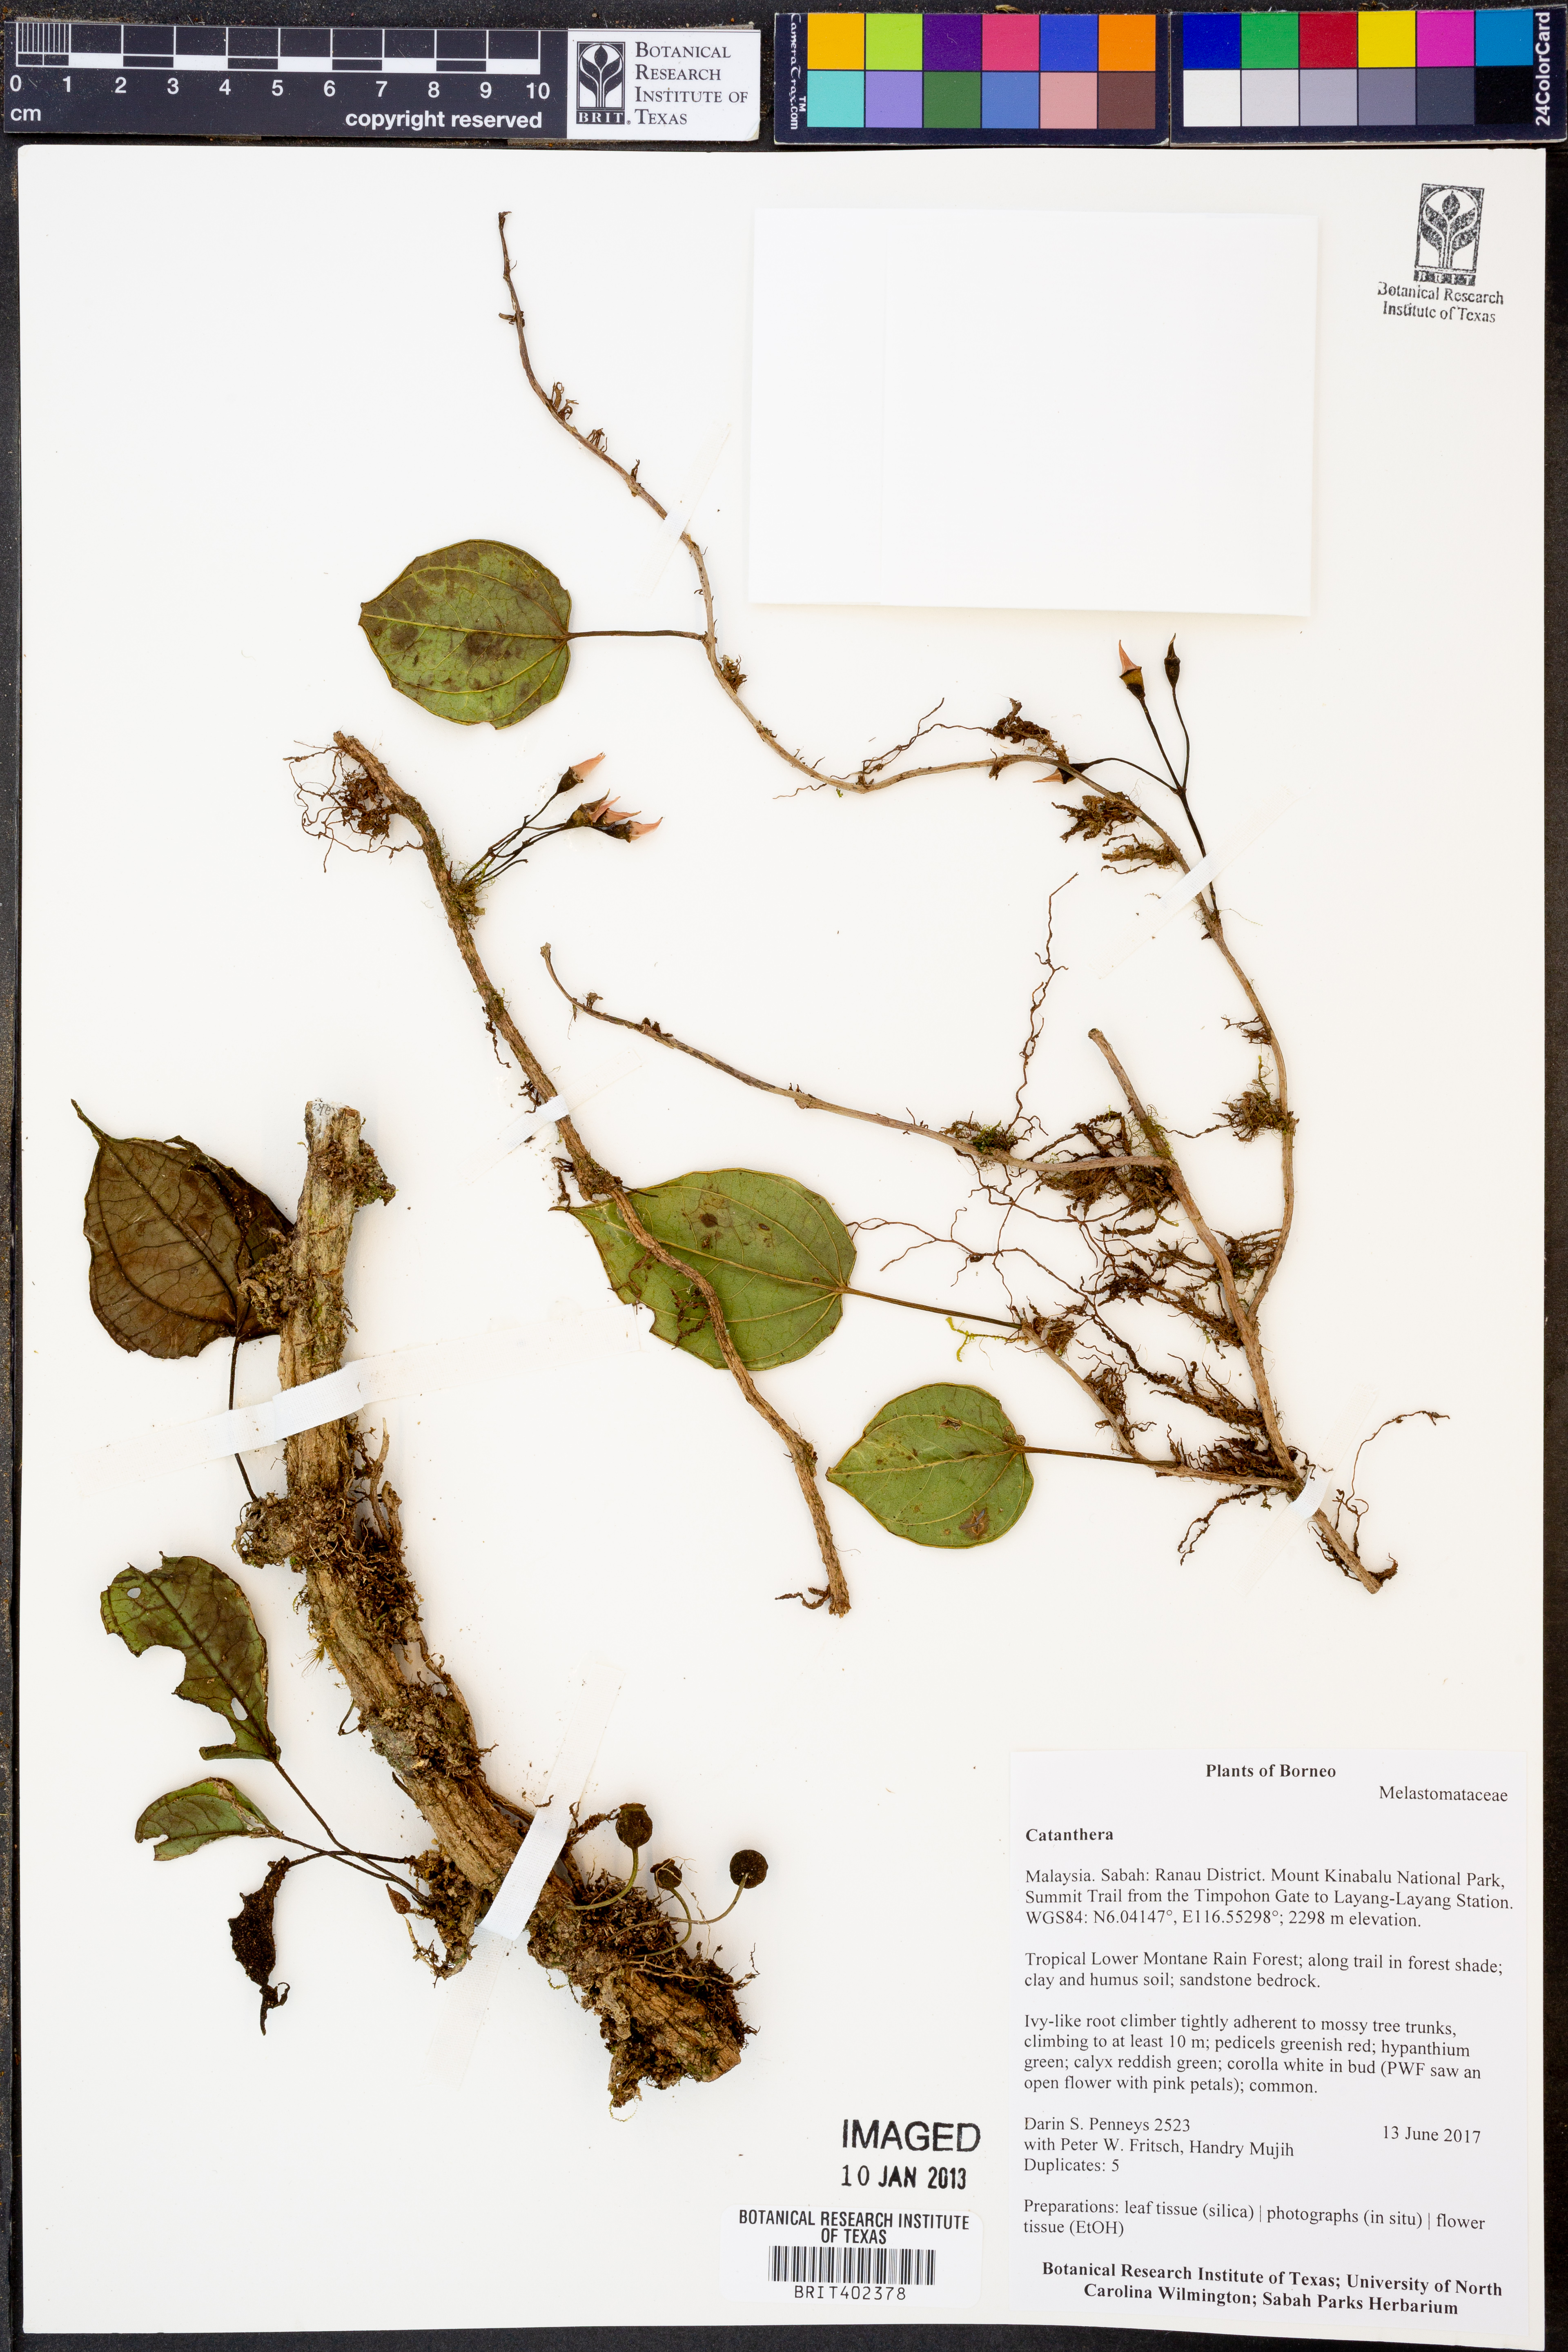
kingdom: Plantae
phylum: Tracheophyta
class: Magnoliopsida
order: Myrtales
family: Melastomataceae
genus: Catanthera
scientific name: Catanthera
